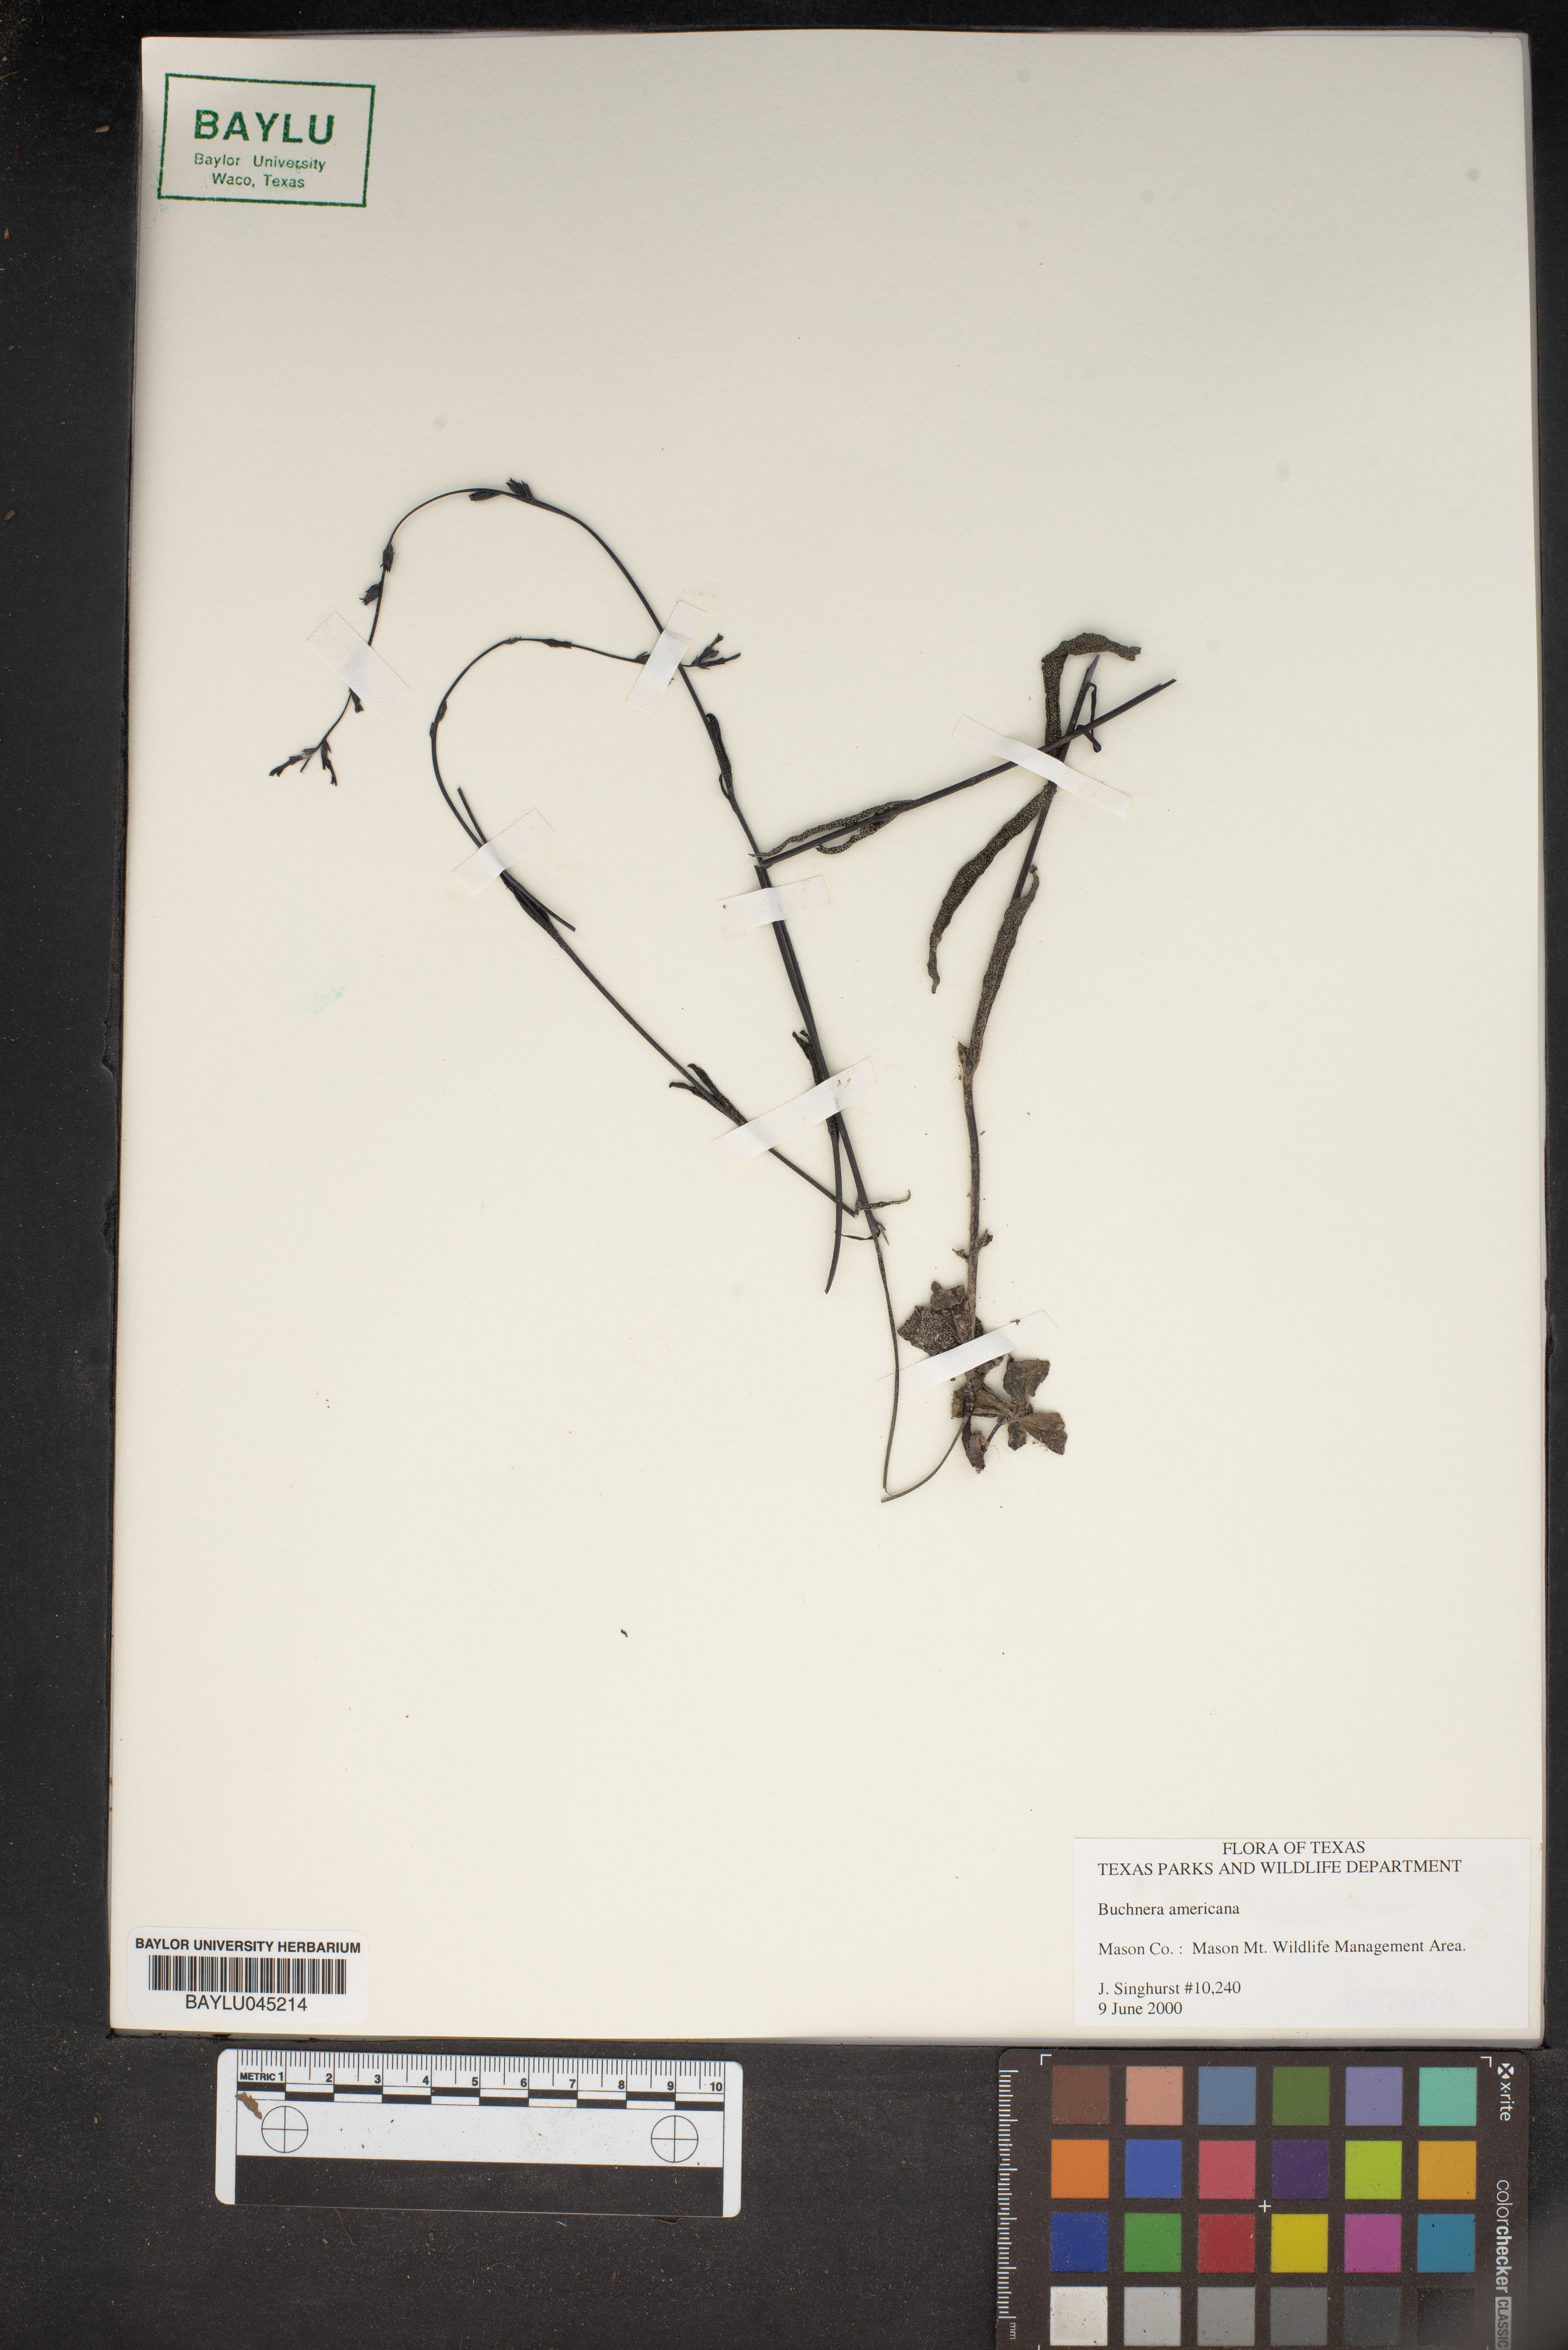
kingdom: Plantae
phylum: Tracheophyta
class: Magnoliopsida
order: Lamiales
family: Orobanchaceae
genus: Buchnera
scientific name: Buchnera americana
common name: American bluehearts
